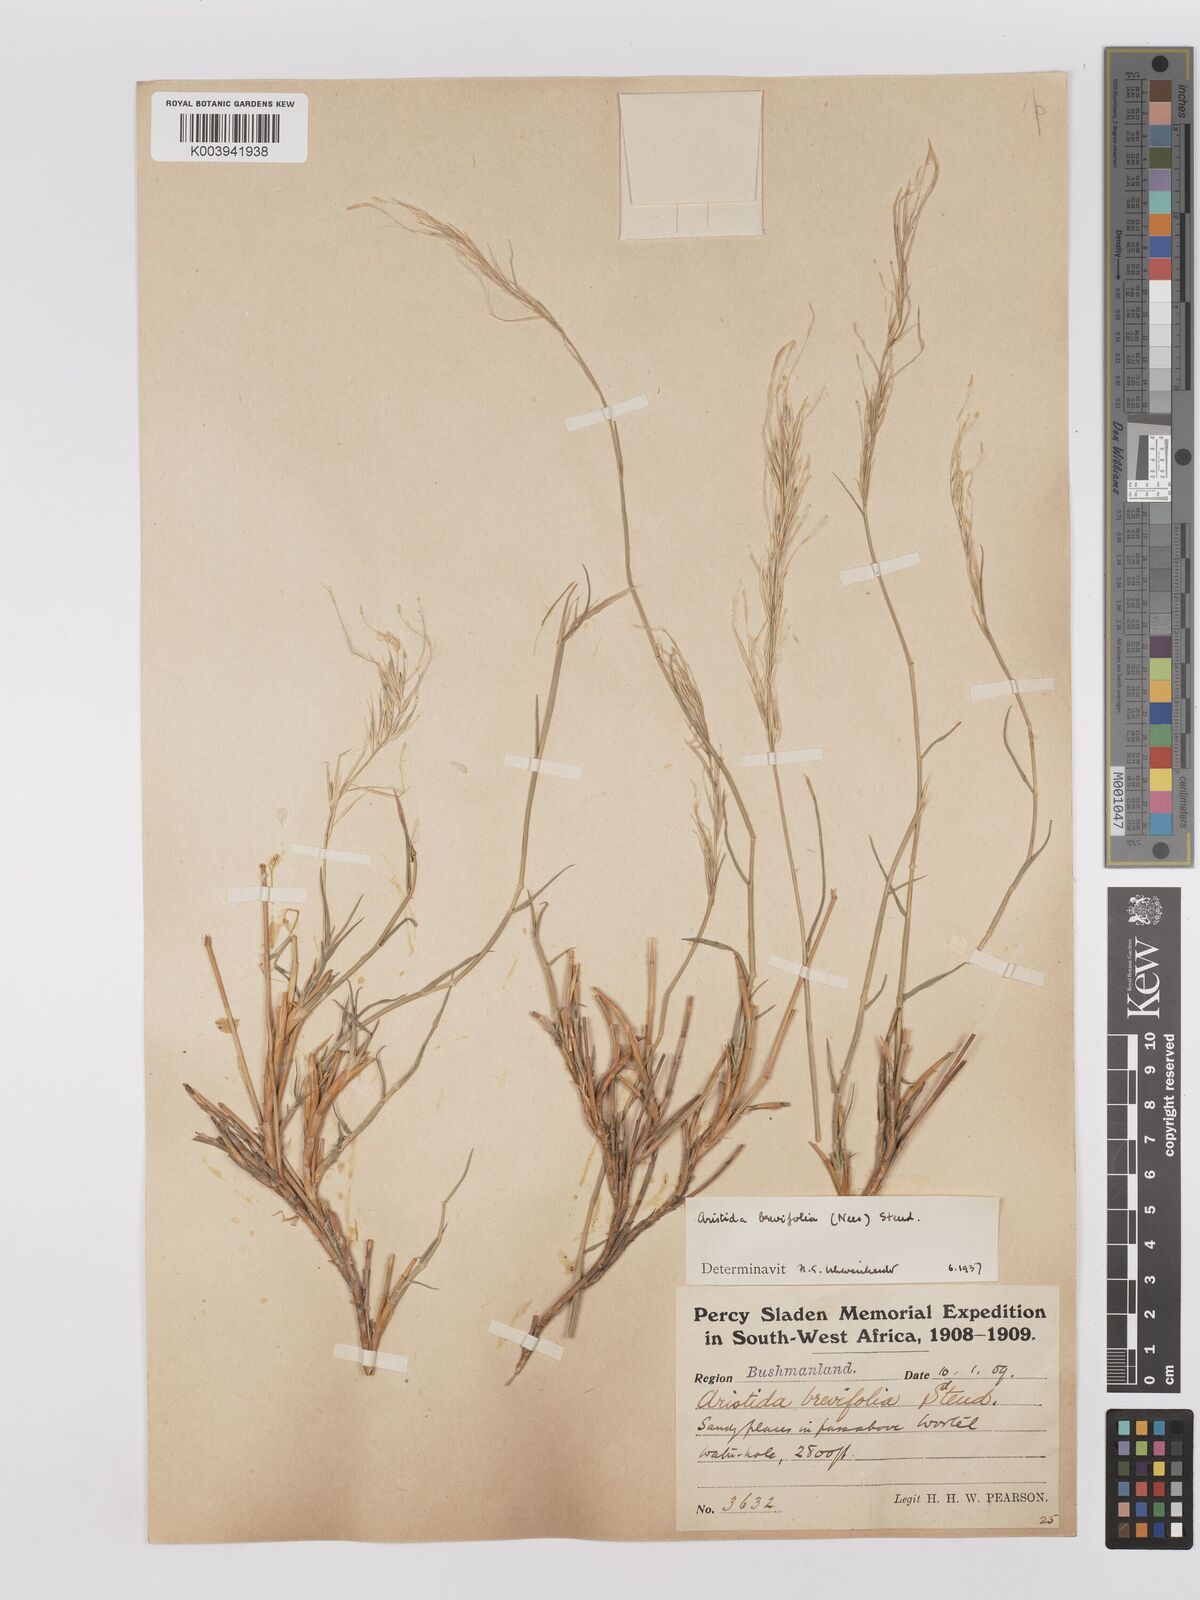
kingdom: Plantae
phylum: Tracheophyta
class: Liliopsida
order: Poales
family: Poaceae
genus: Stipagrostis
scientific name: Stipagrostis brevifolia
